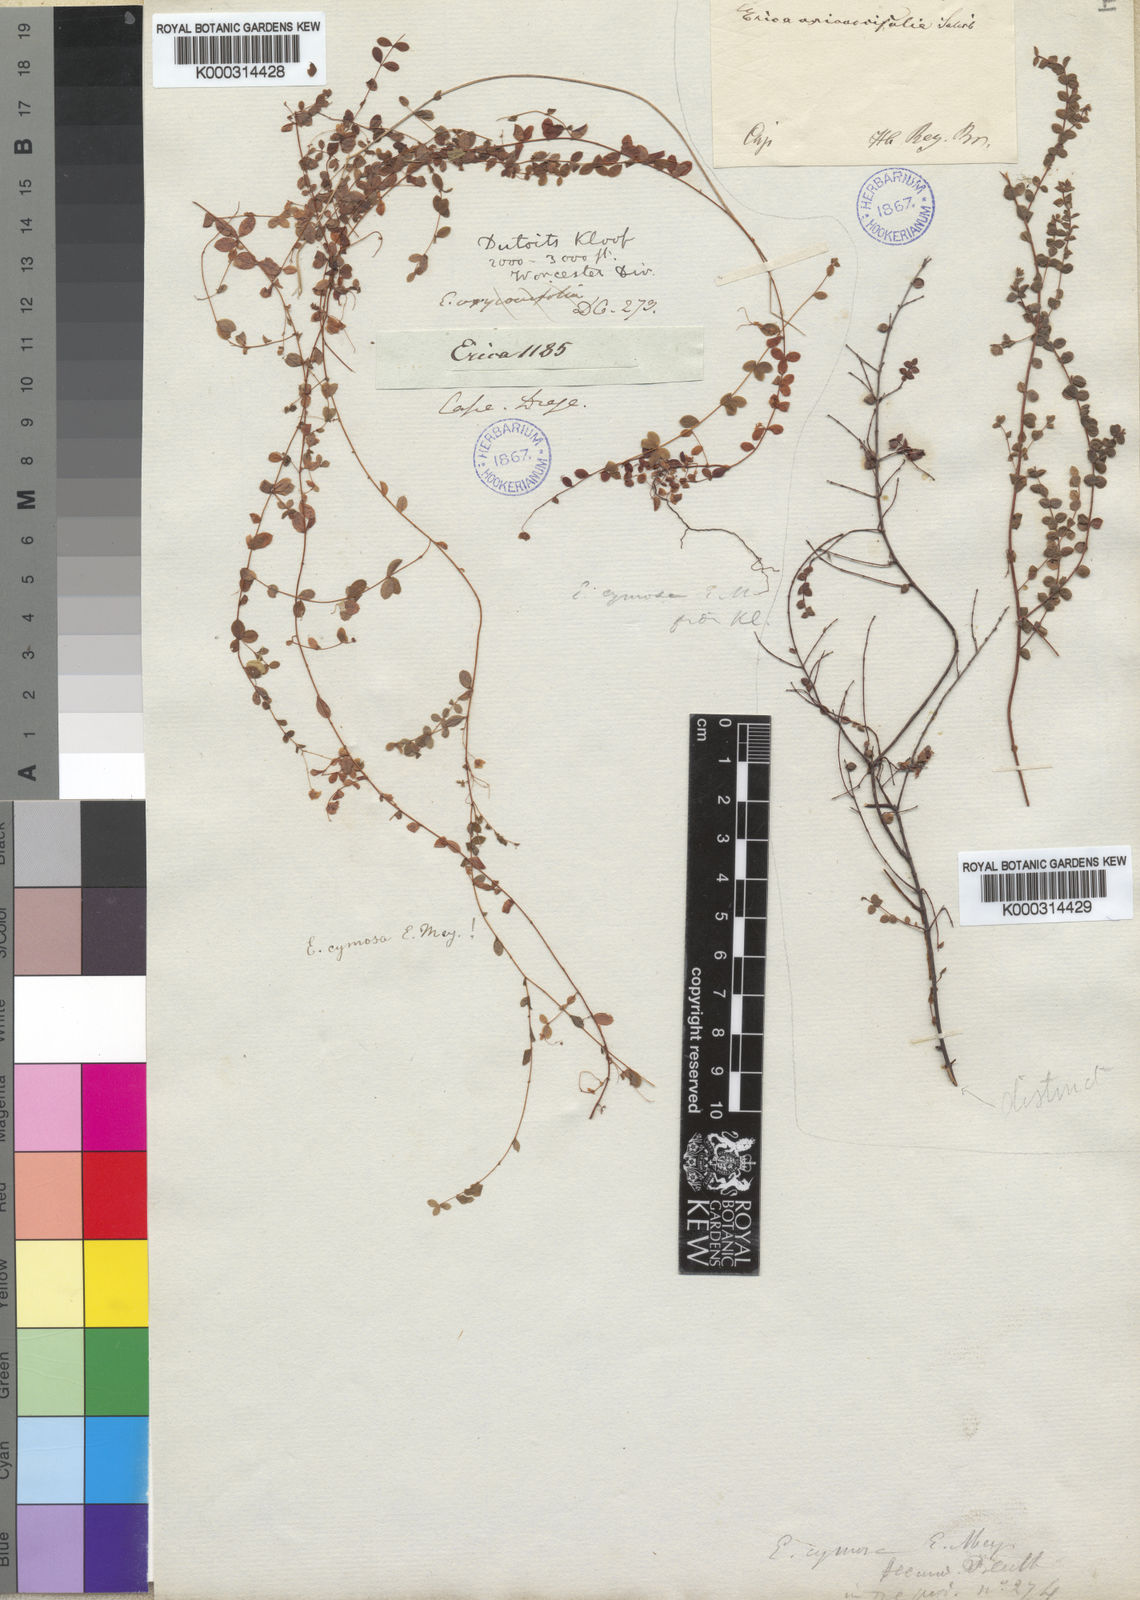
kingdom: Plantae
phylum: Tracheophyta
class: Magnoliopsida
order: Ericales
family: Ericaceae
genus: Erica
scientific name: Erica cymosa
